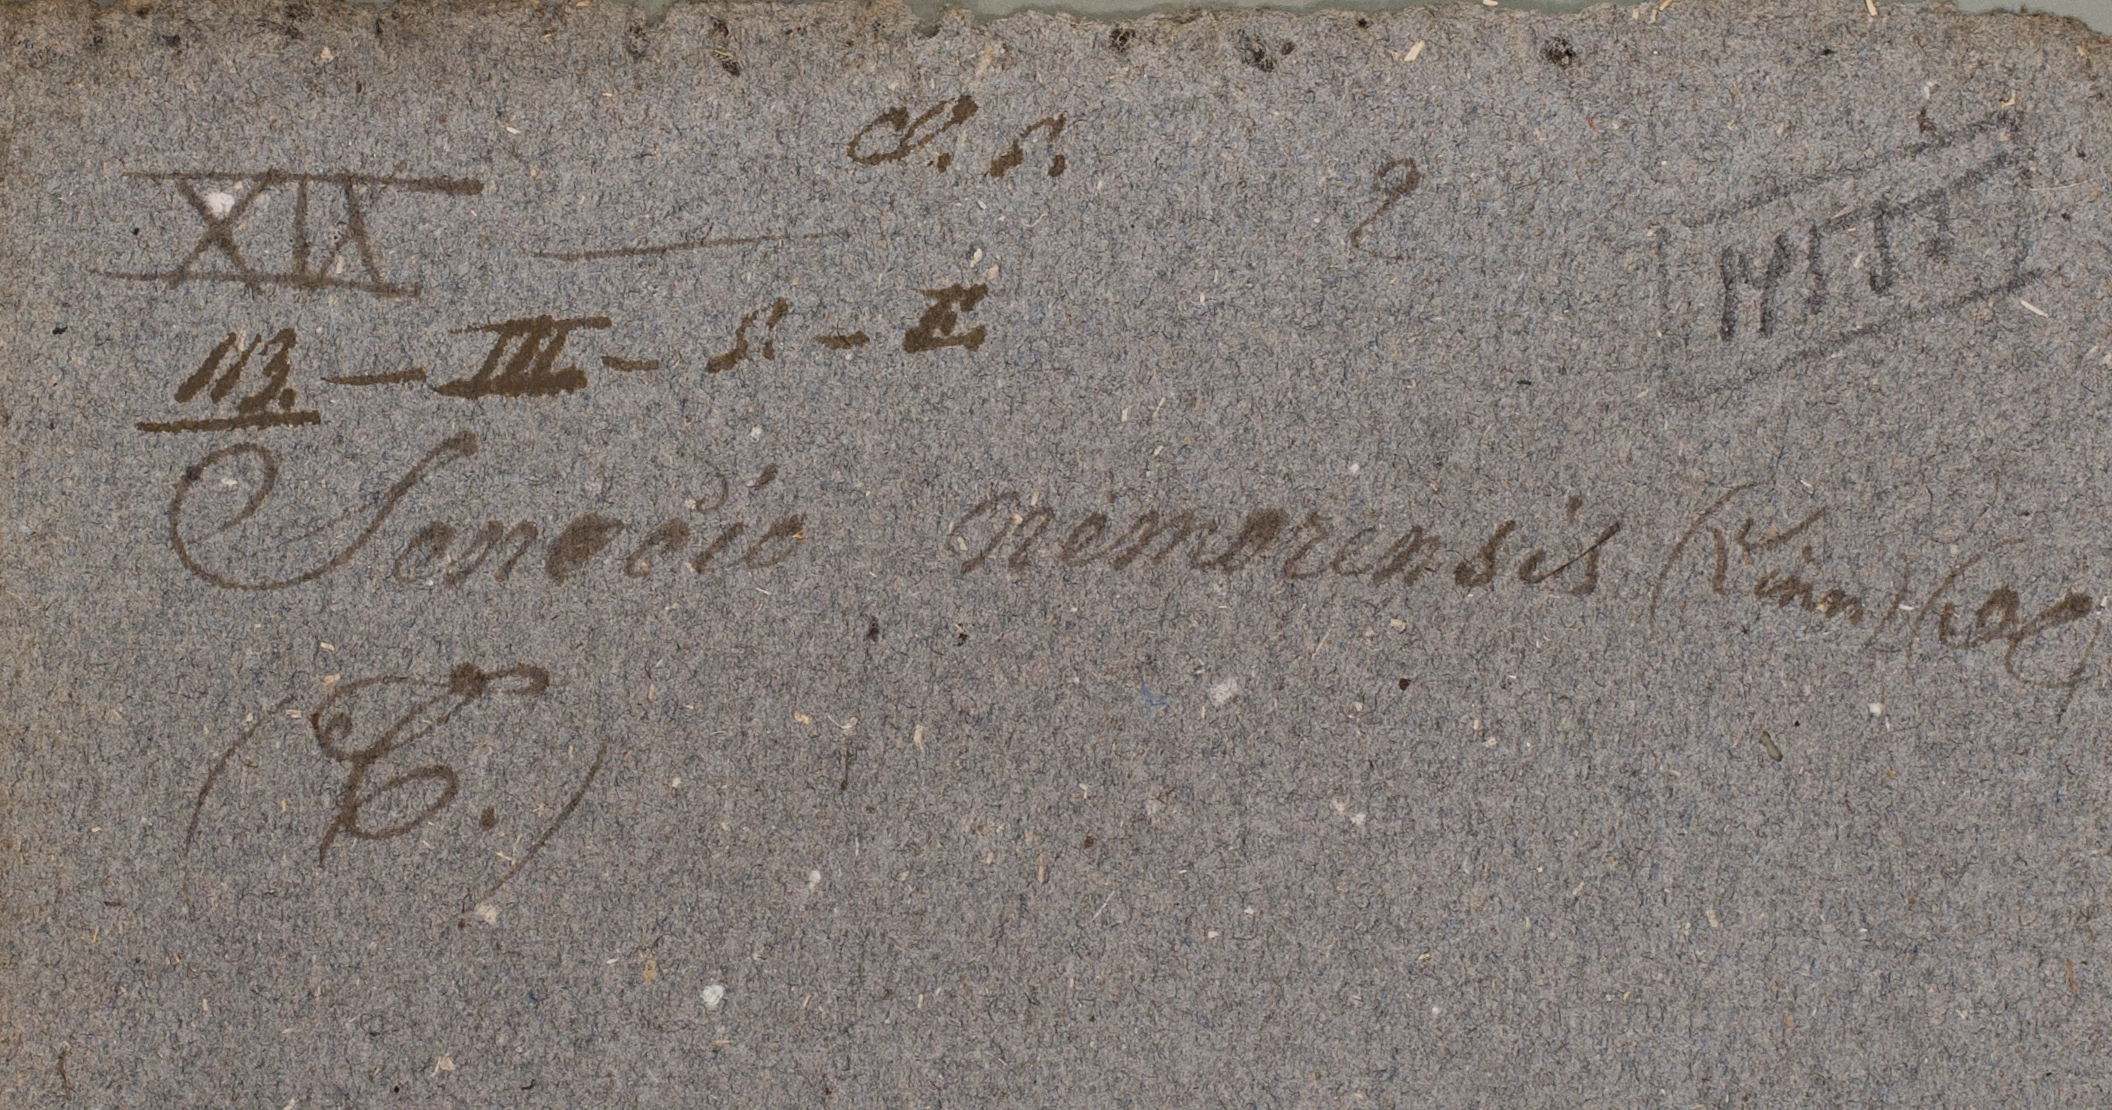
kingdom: Plantae
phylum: Tracheophyta
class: Magnoliopsida
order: Asterales
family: Asteraceae
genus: Senecio
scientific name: Senecio nemorensis
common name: Alpine ragwort
